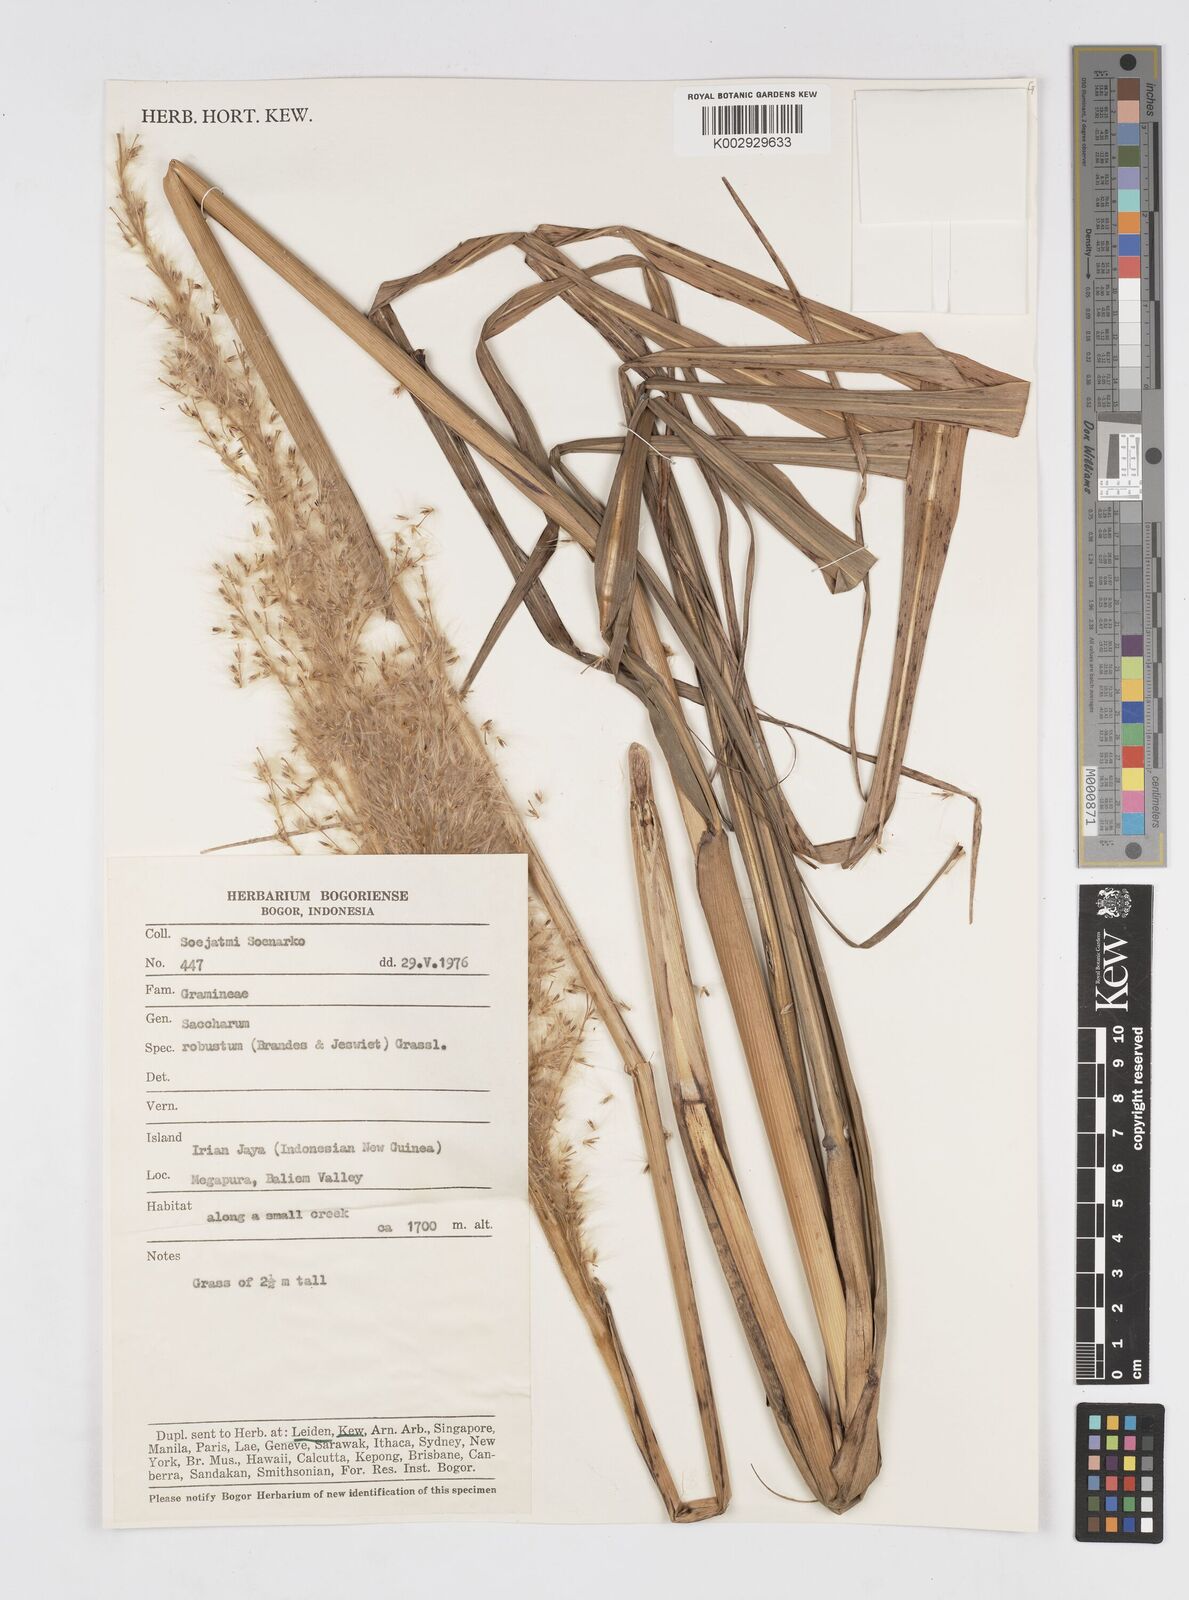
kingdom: Plantae
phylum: Tracheophyta
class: Liliopsida
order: Poales
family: Poaceae
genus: Saccharum
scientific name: Saccharum spontaneum
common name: Wild sugarcane
